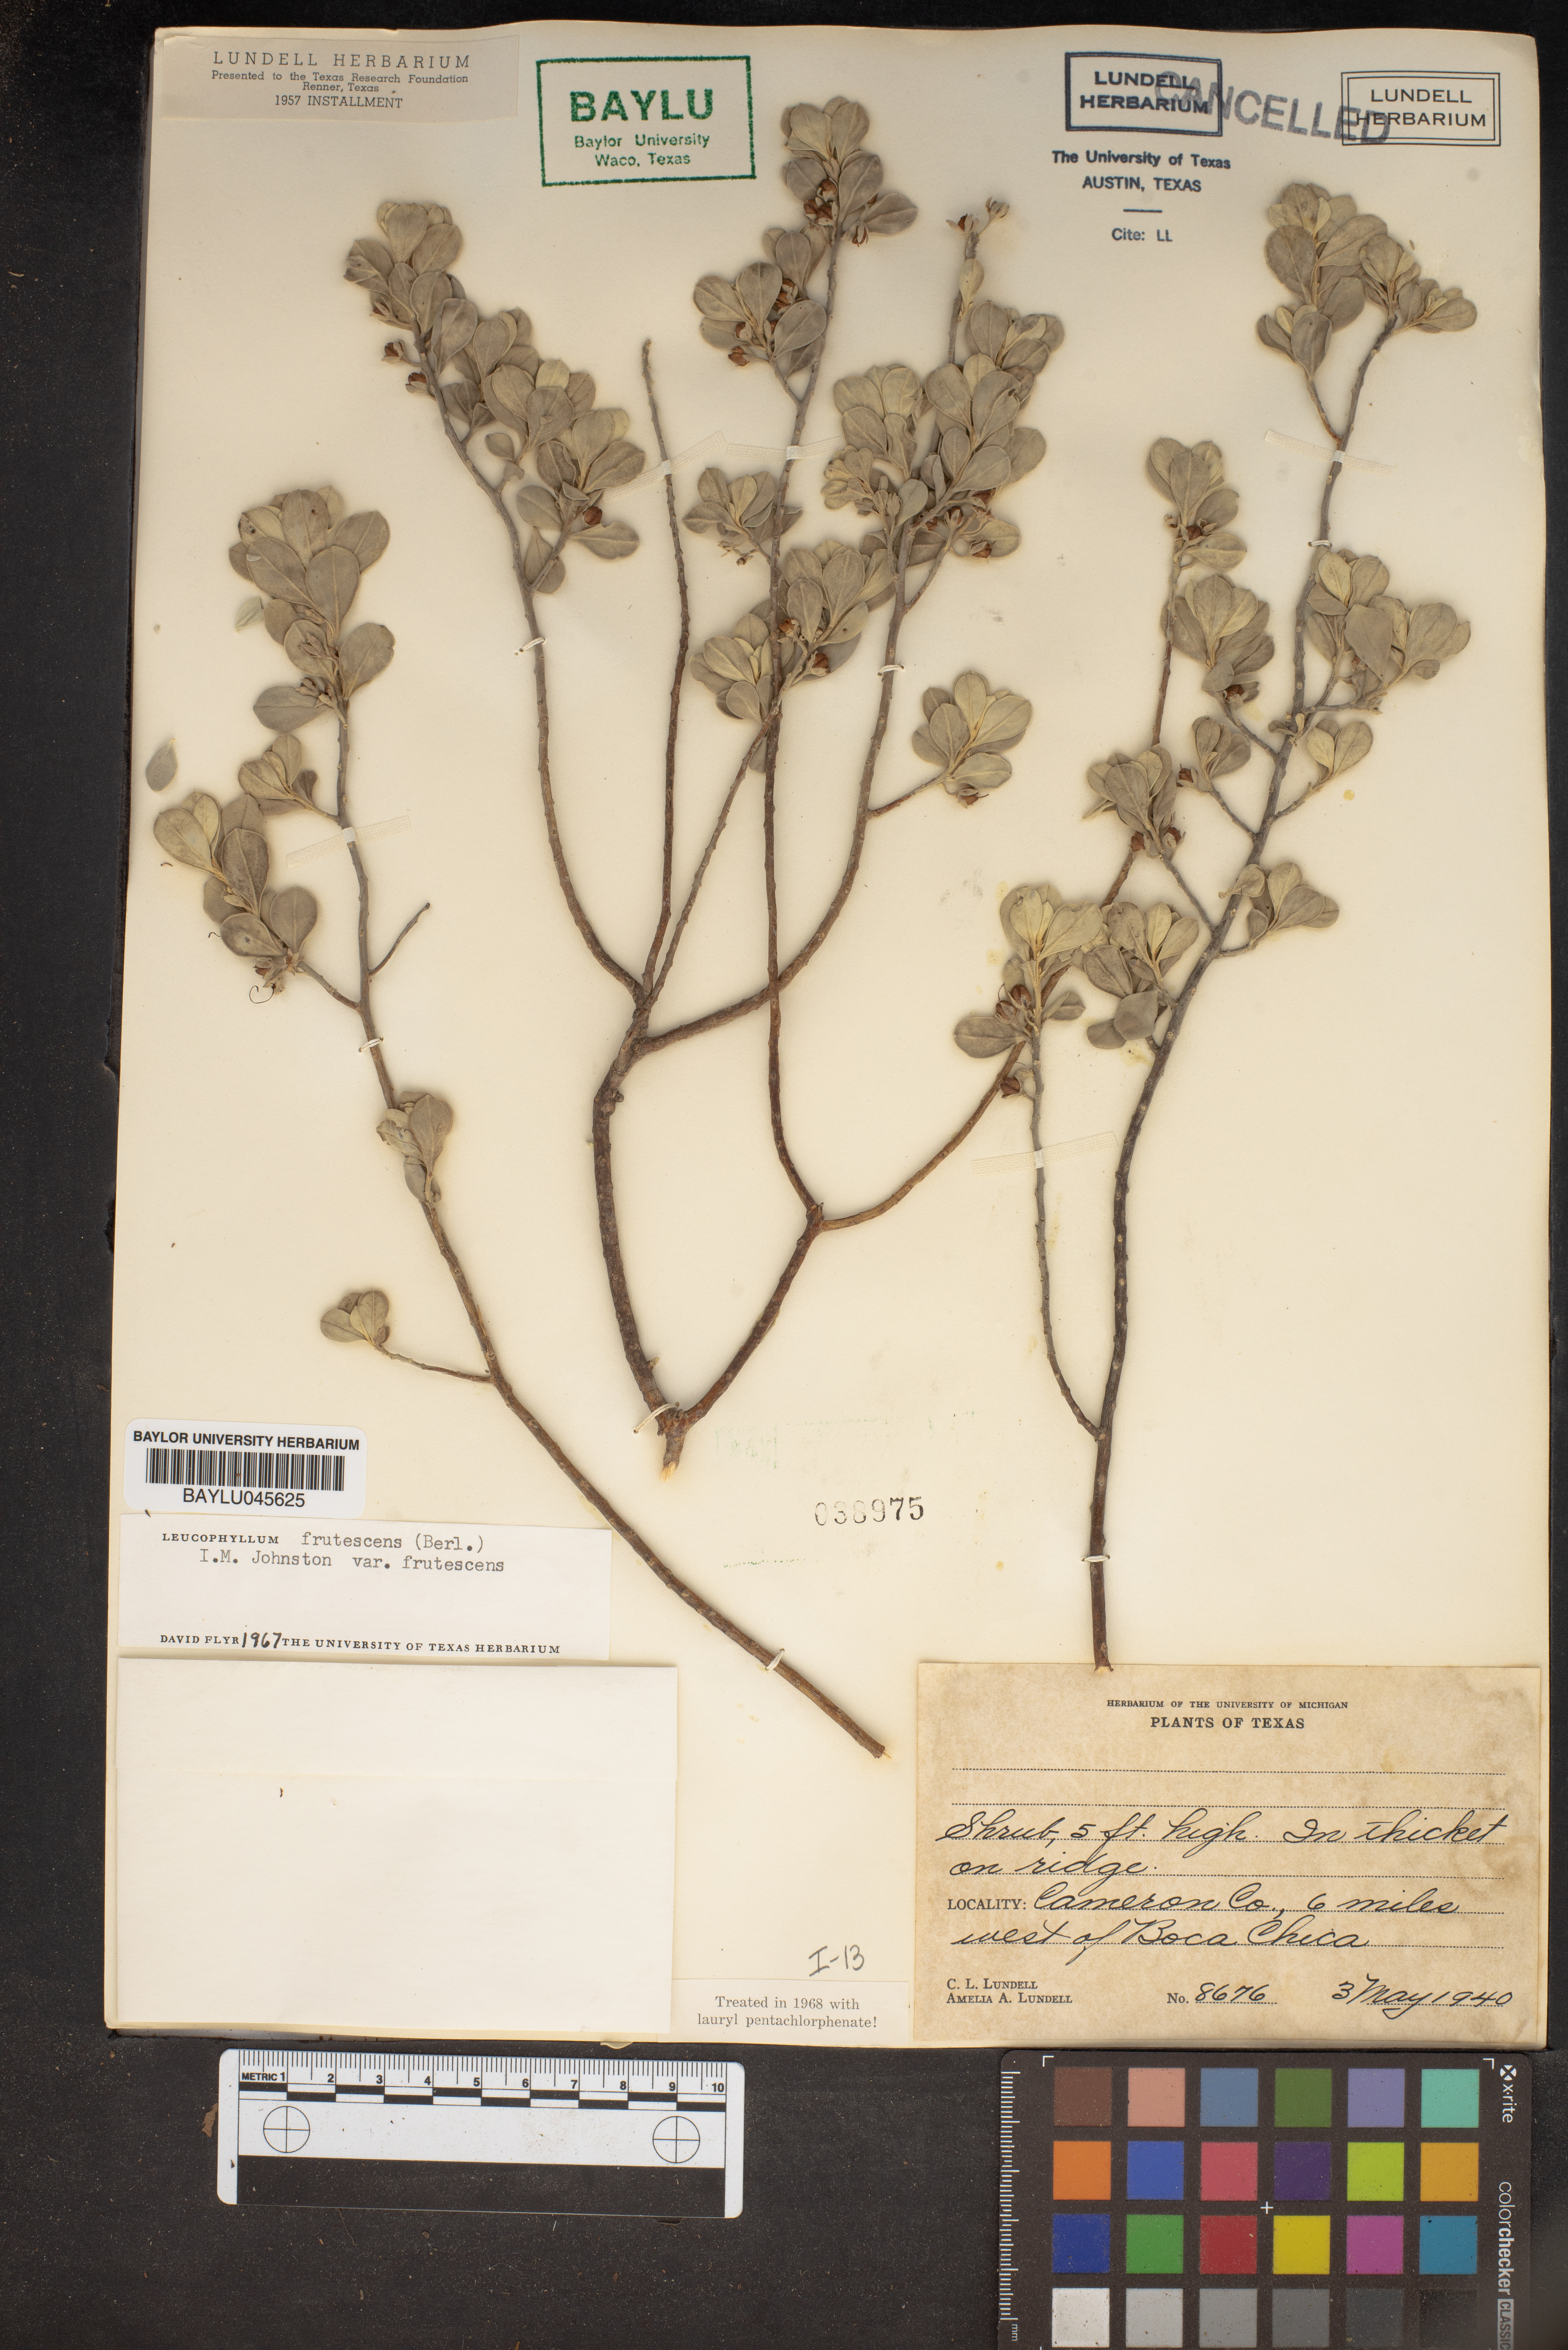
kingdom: Plantae
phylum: Tracheophyta
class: Magnoliopsida
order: Lamiales
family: Scrophulariaceae
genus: Leucophyllum
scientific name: Leucophyllum frutescens
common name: Texas silverleaf
